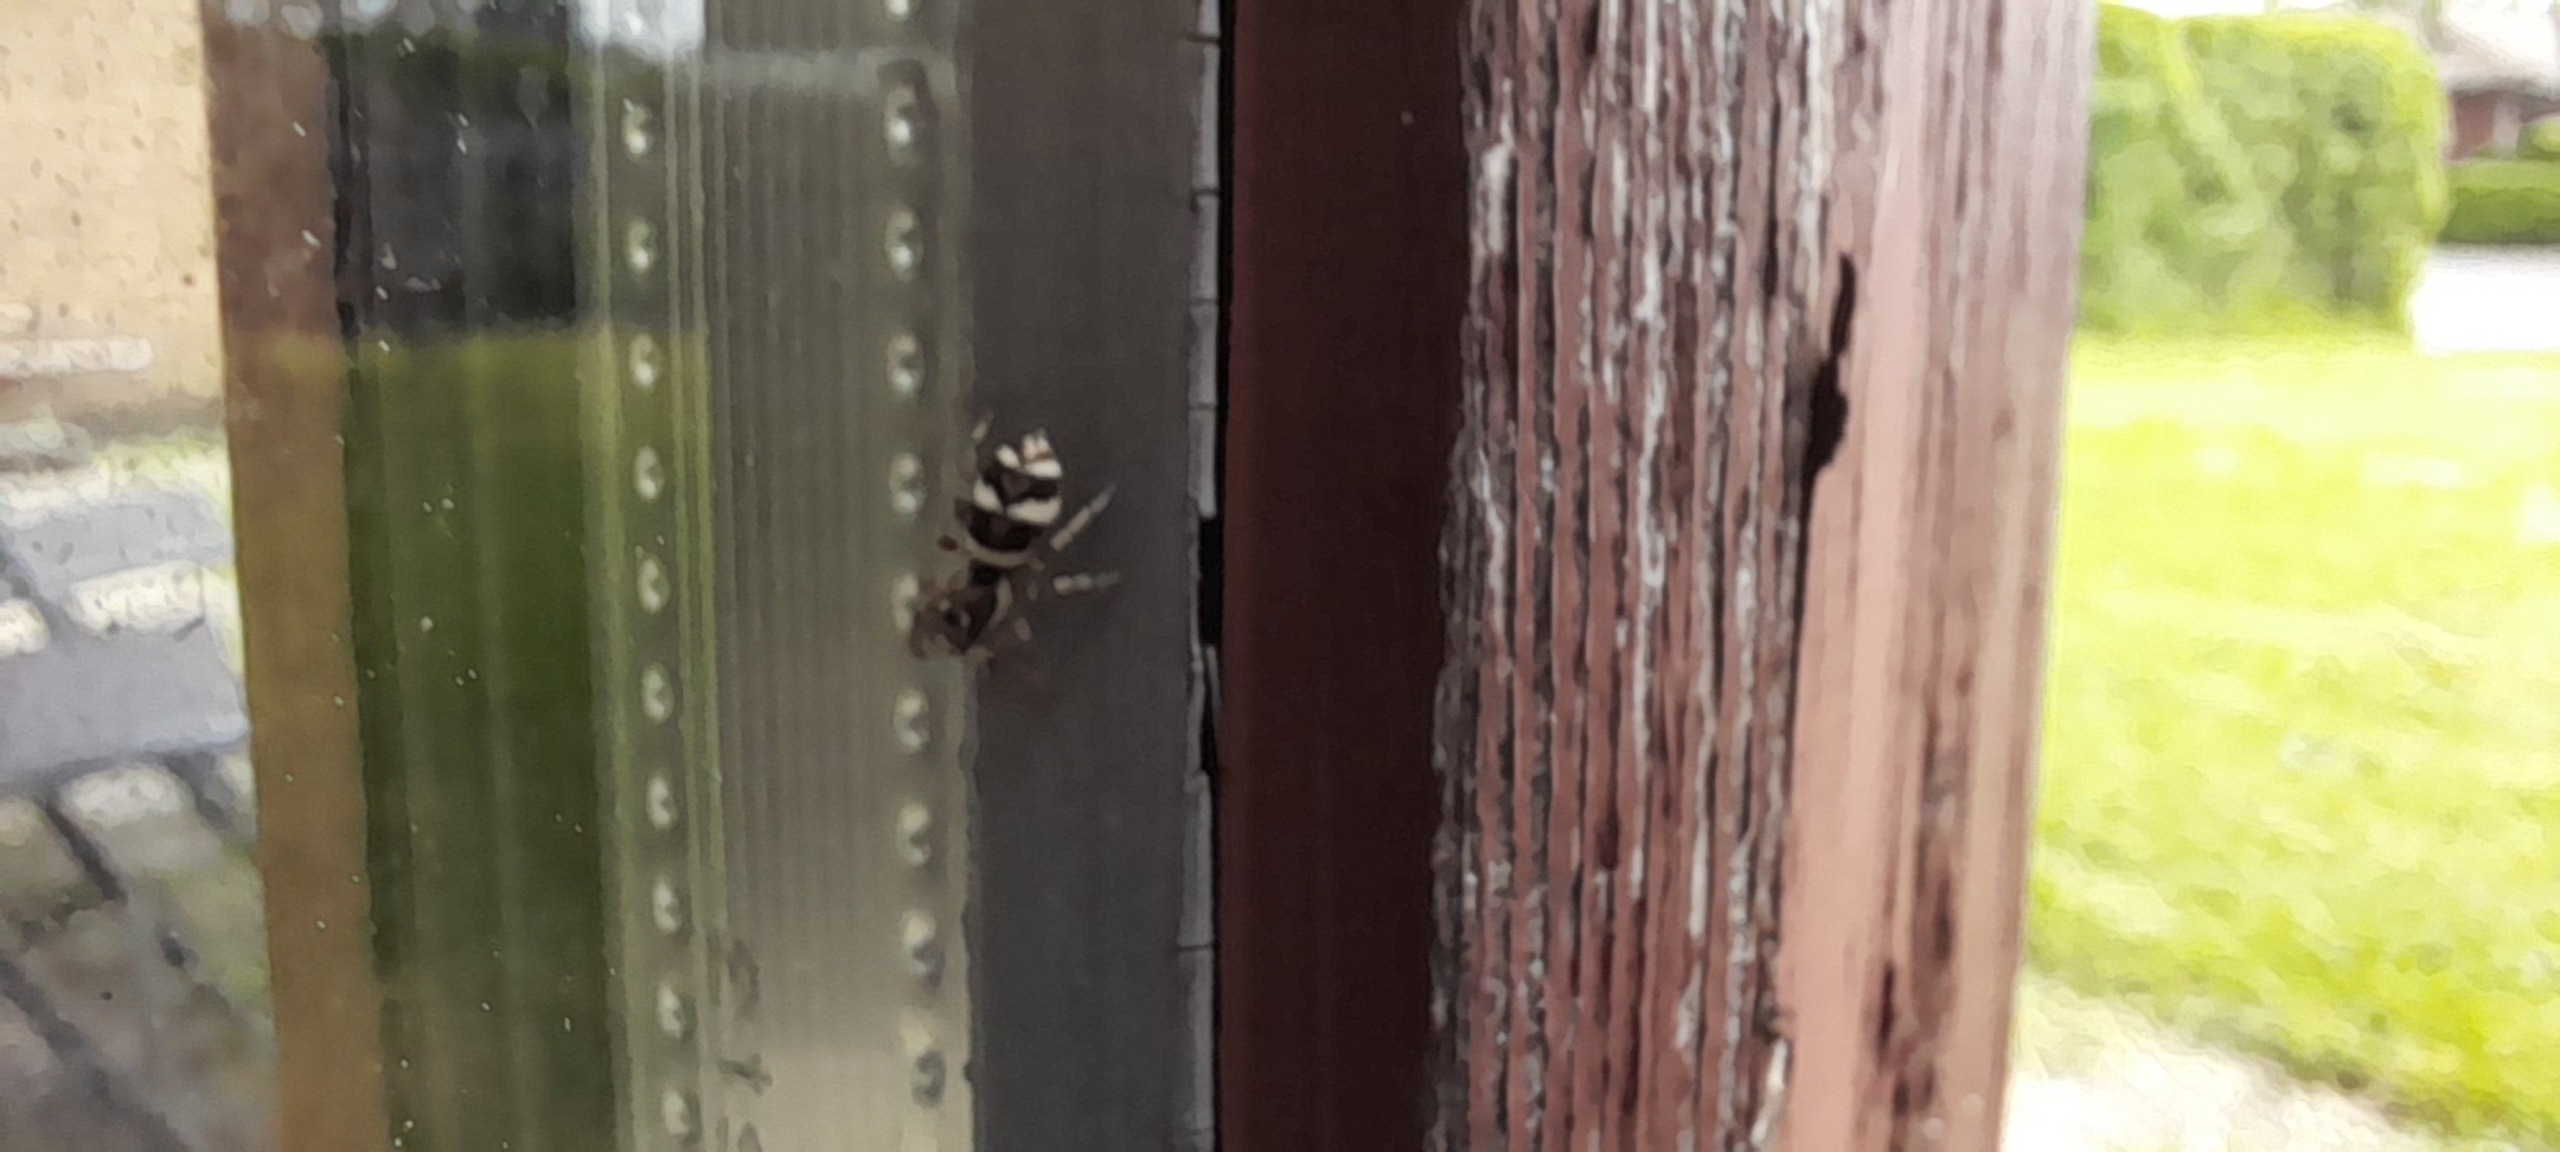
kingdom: Animalia
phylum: Arthropoda
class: Arachnida
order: Araneae
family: Salticidae
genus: Salticus
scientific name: Salticus scenicus
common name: Almindelig zebraedderkop
